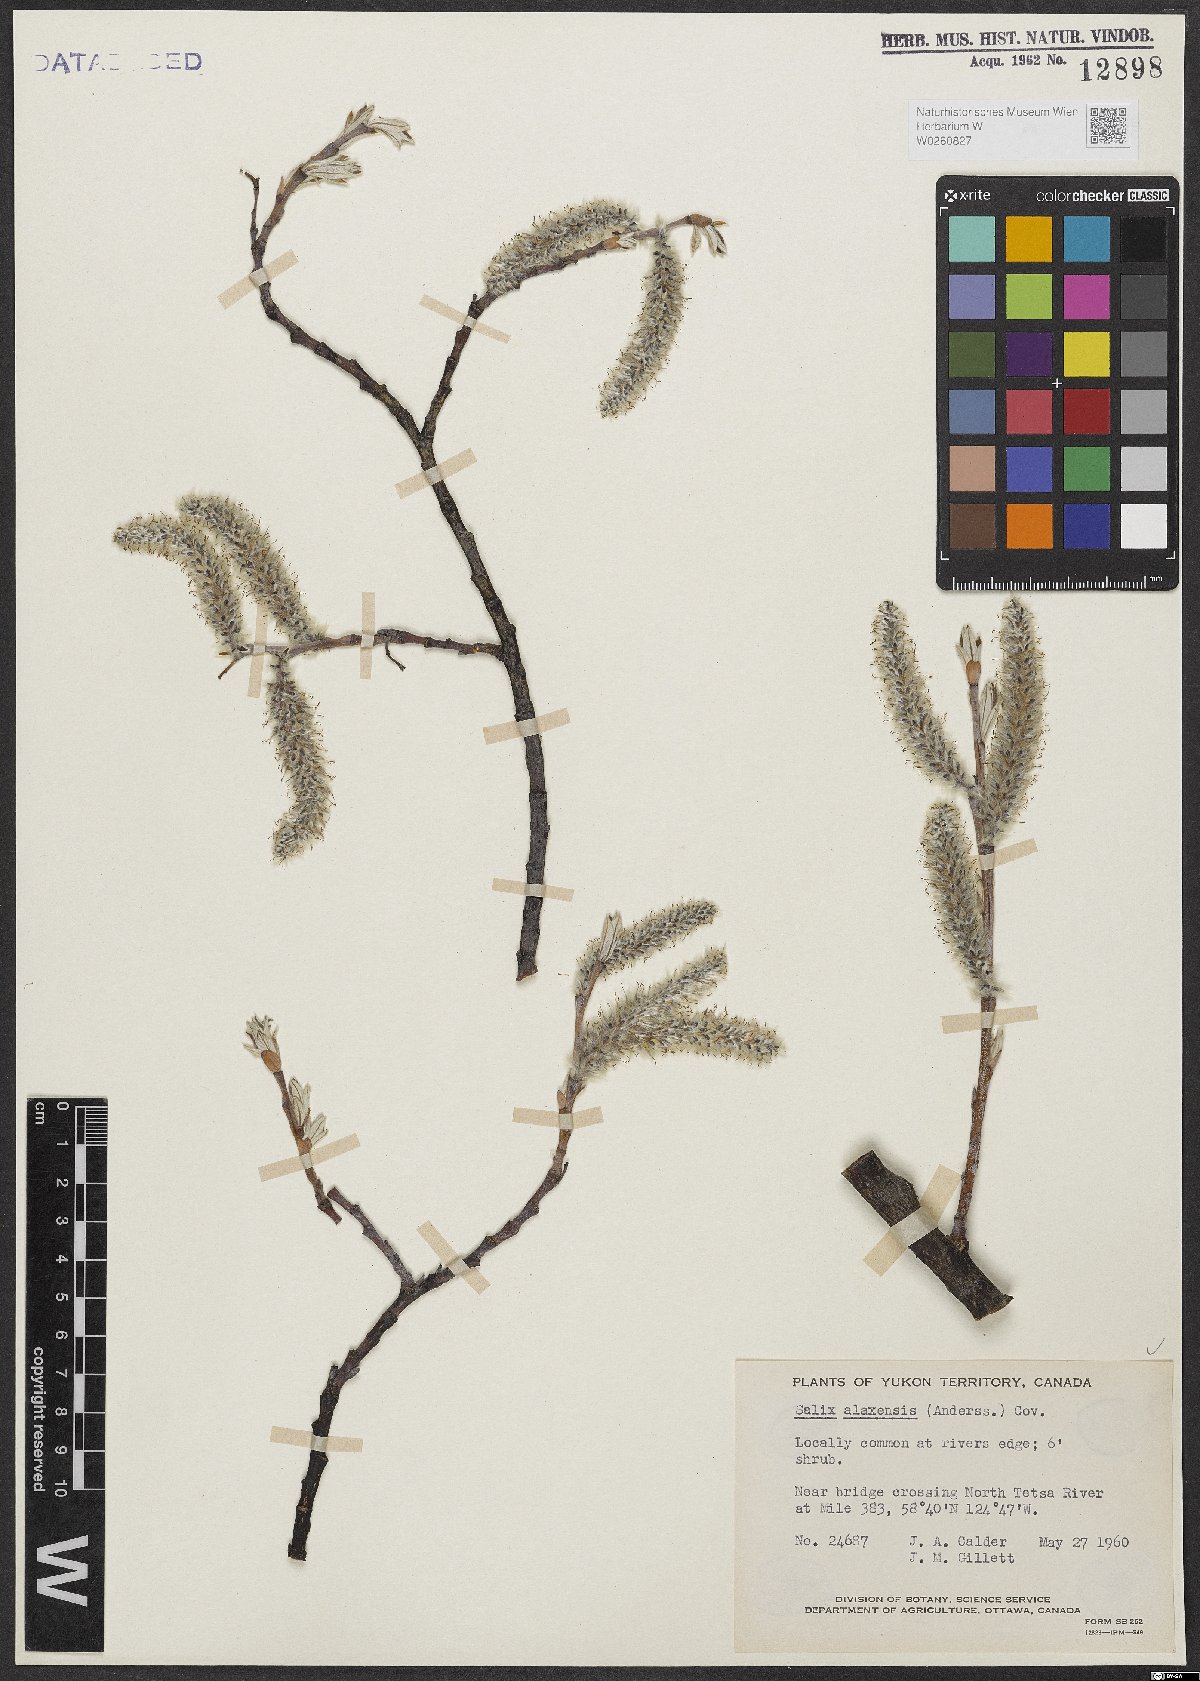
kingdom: Plantae
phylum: Tracheophyta
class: Magnoliopsida
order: Malpighiales
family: Salicaceae
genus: Salix
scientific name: Salix alaxensis
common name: Feltleaf willow
